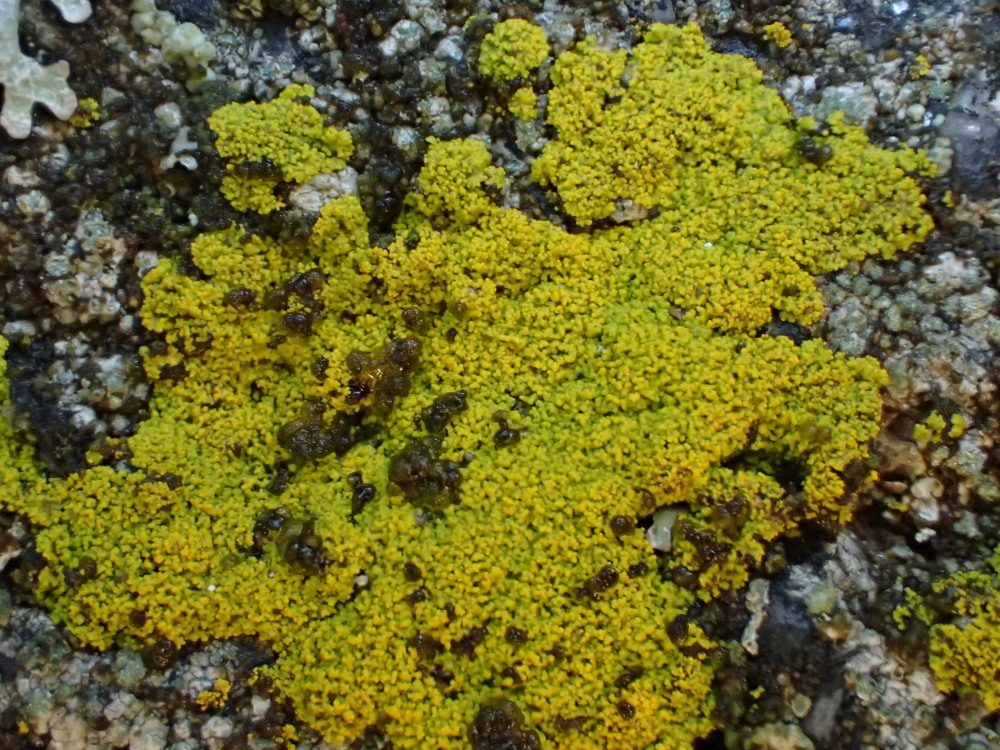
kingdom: Fungi
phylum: Ascomycota
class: Candelariomycetes
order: Candelariales
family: Candelariaceae
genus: Candelariella
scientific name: Candelariella vitellina
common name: almindelig æggeblommelav
